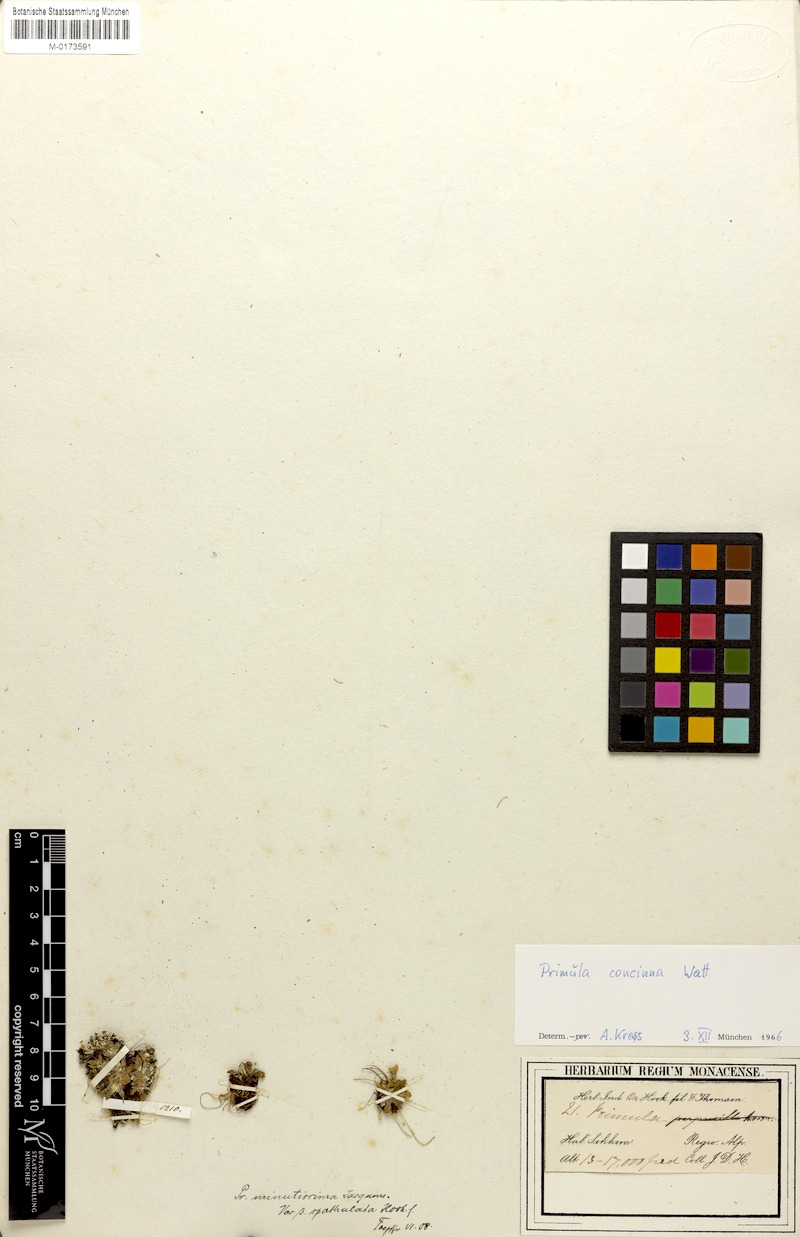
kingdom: Plantae
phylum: Tracheophyta
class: Magnoliopsida
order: Ericales
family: Primulaceae
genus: Primula
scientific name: Primula concinna
